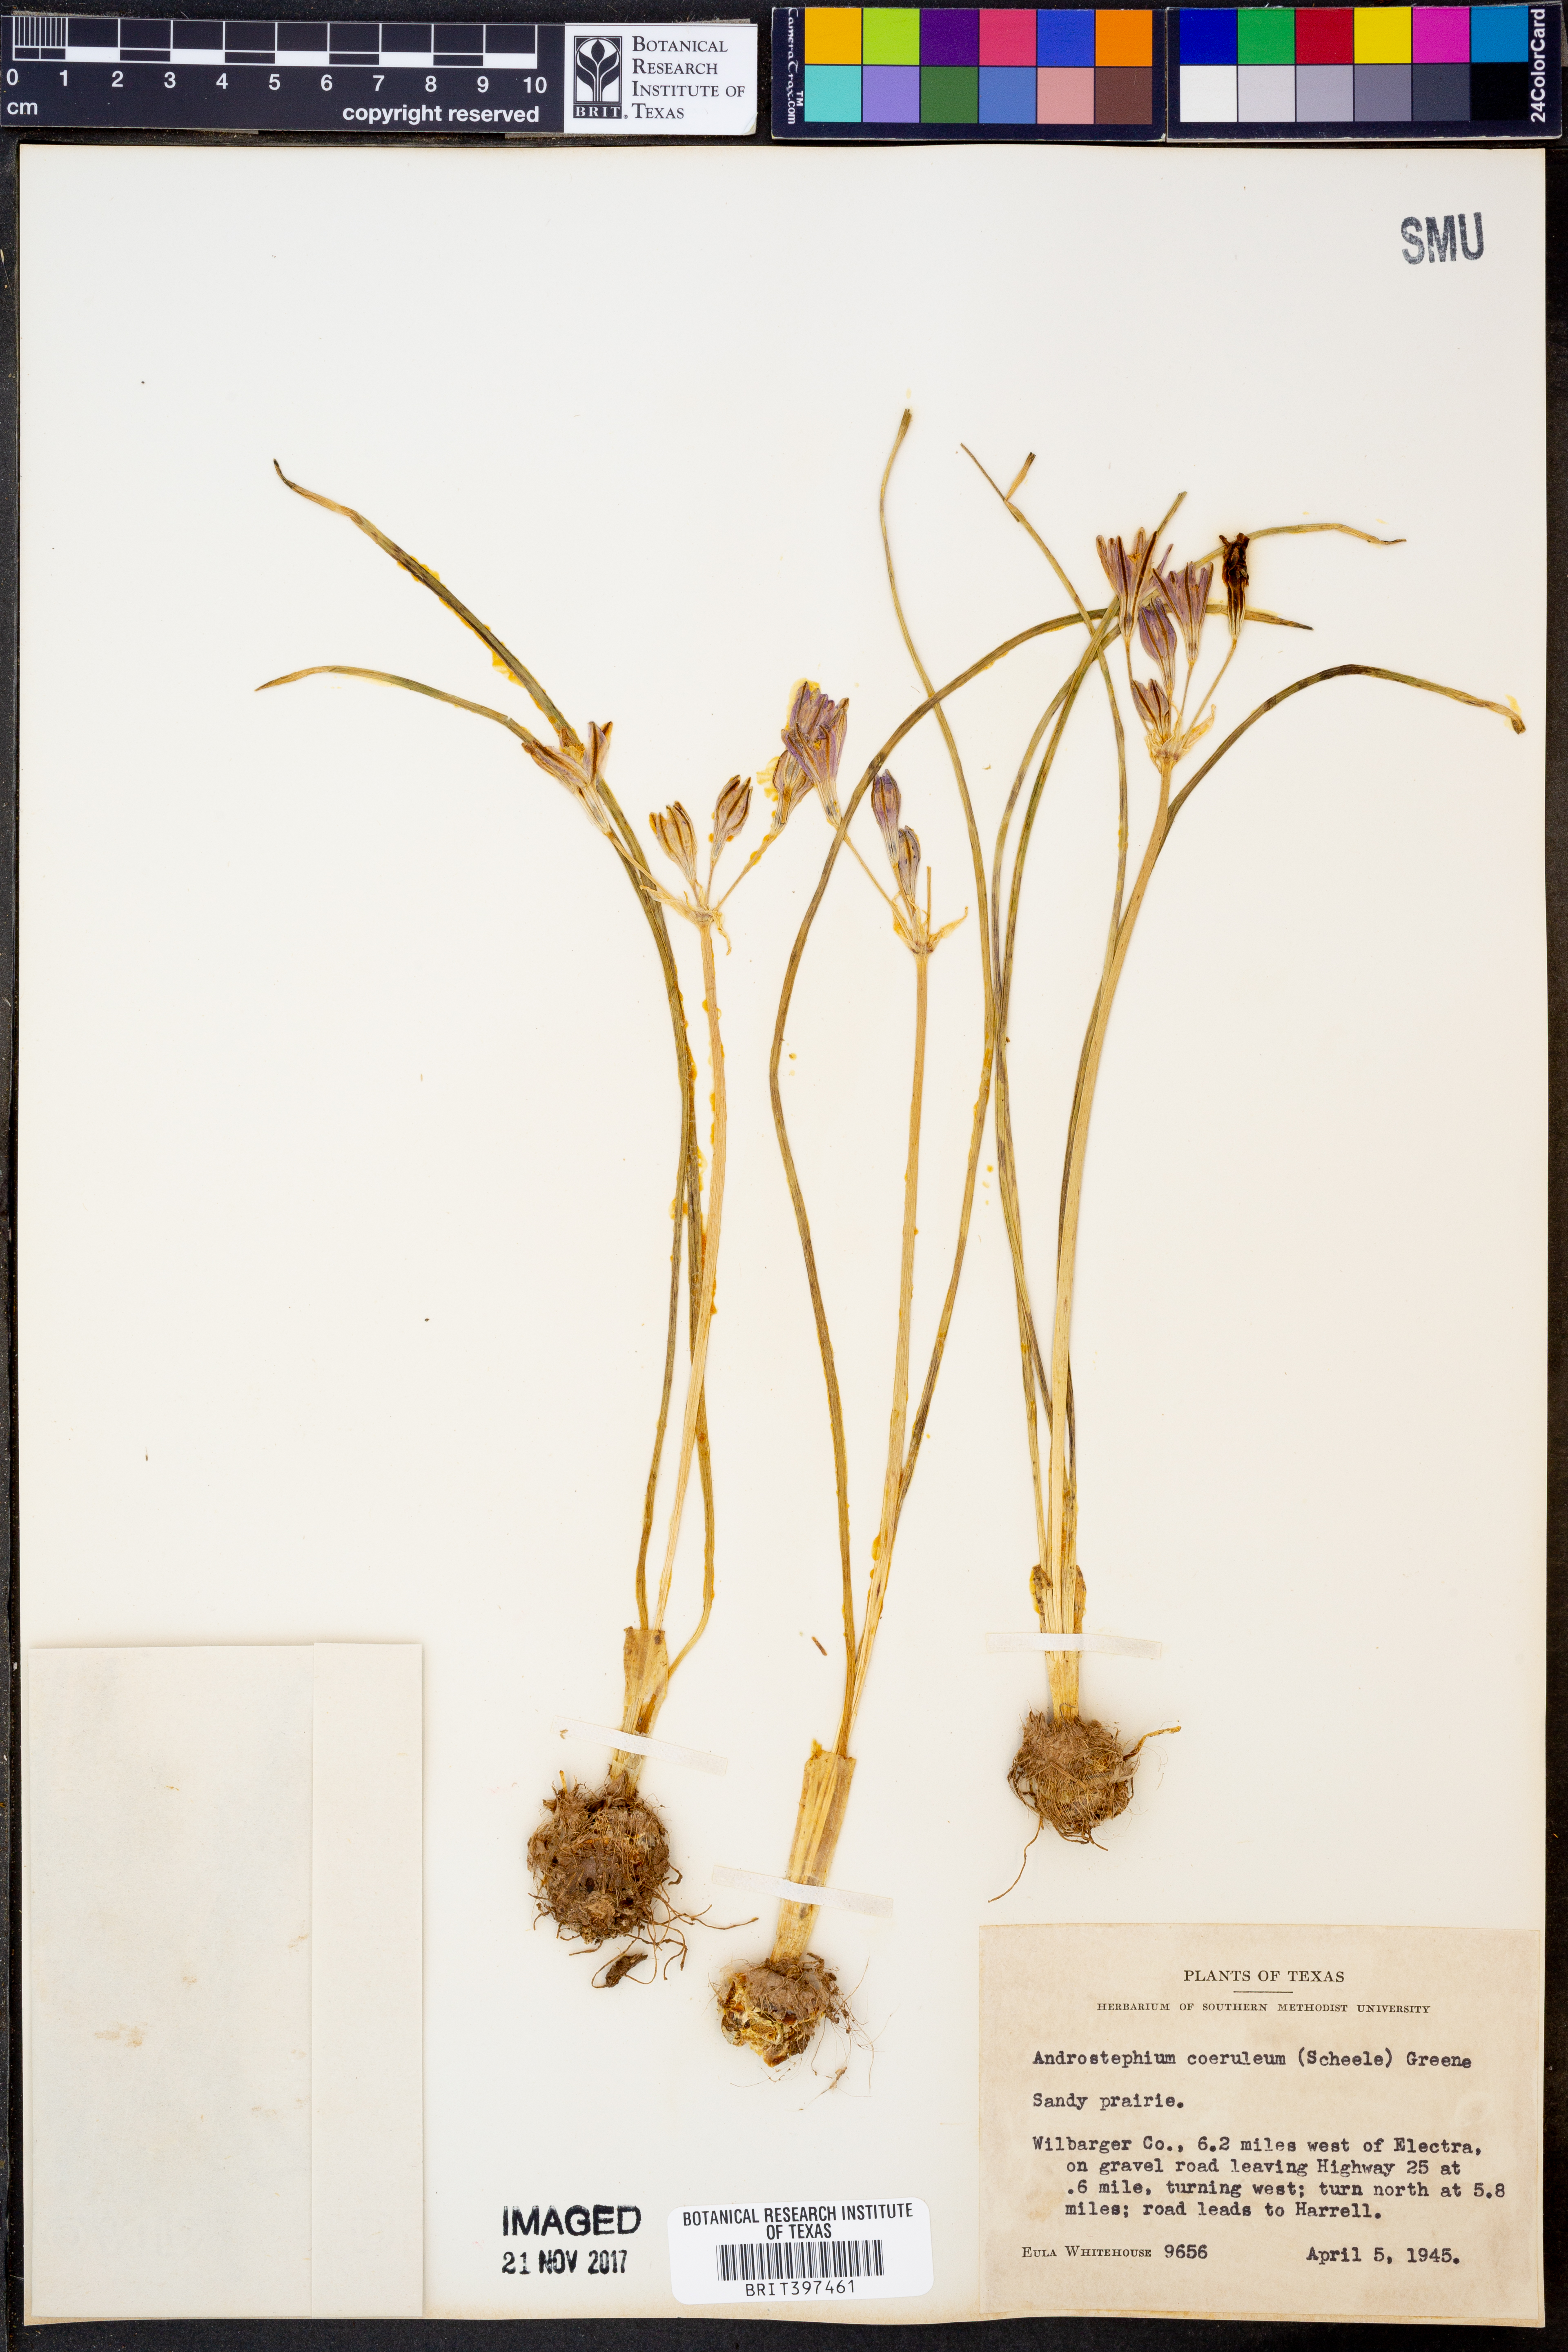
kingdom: Plantae
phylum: Tracheophyta
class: Liliopsida
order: Asparagales
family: Asparagaceae
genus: Androstephium
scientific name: Androstephium caeruleum
